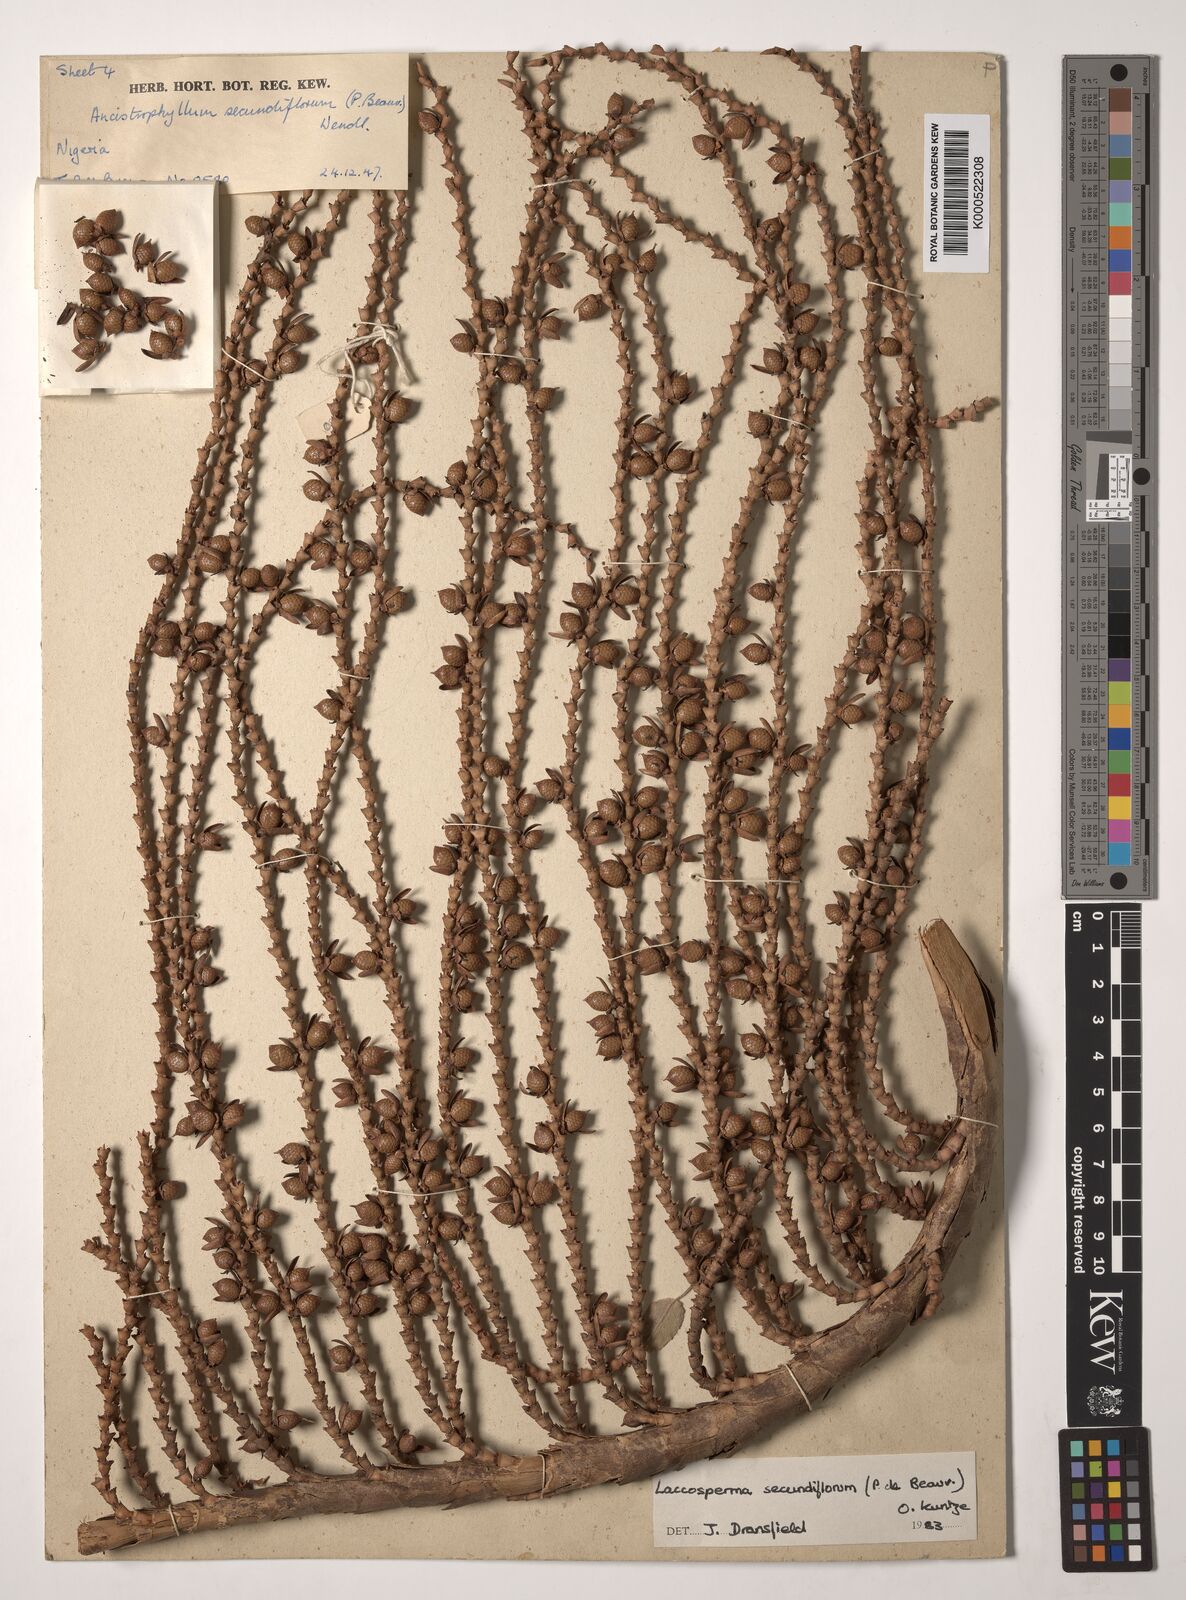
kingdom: Plantae
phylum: Tracheophyta
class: Liliopsida
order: Arecales
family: Arecaceae
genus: Laccosperma
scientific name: Laccosperma secundiflorum
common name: Rattan
